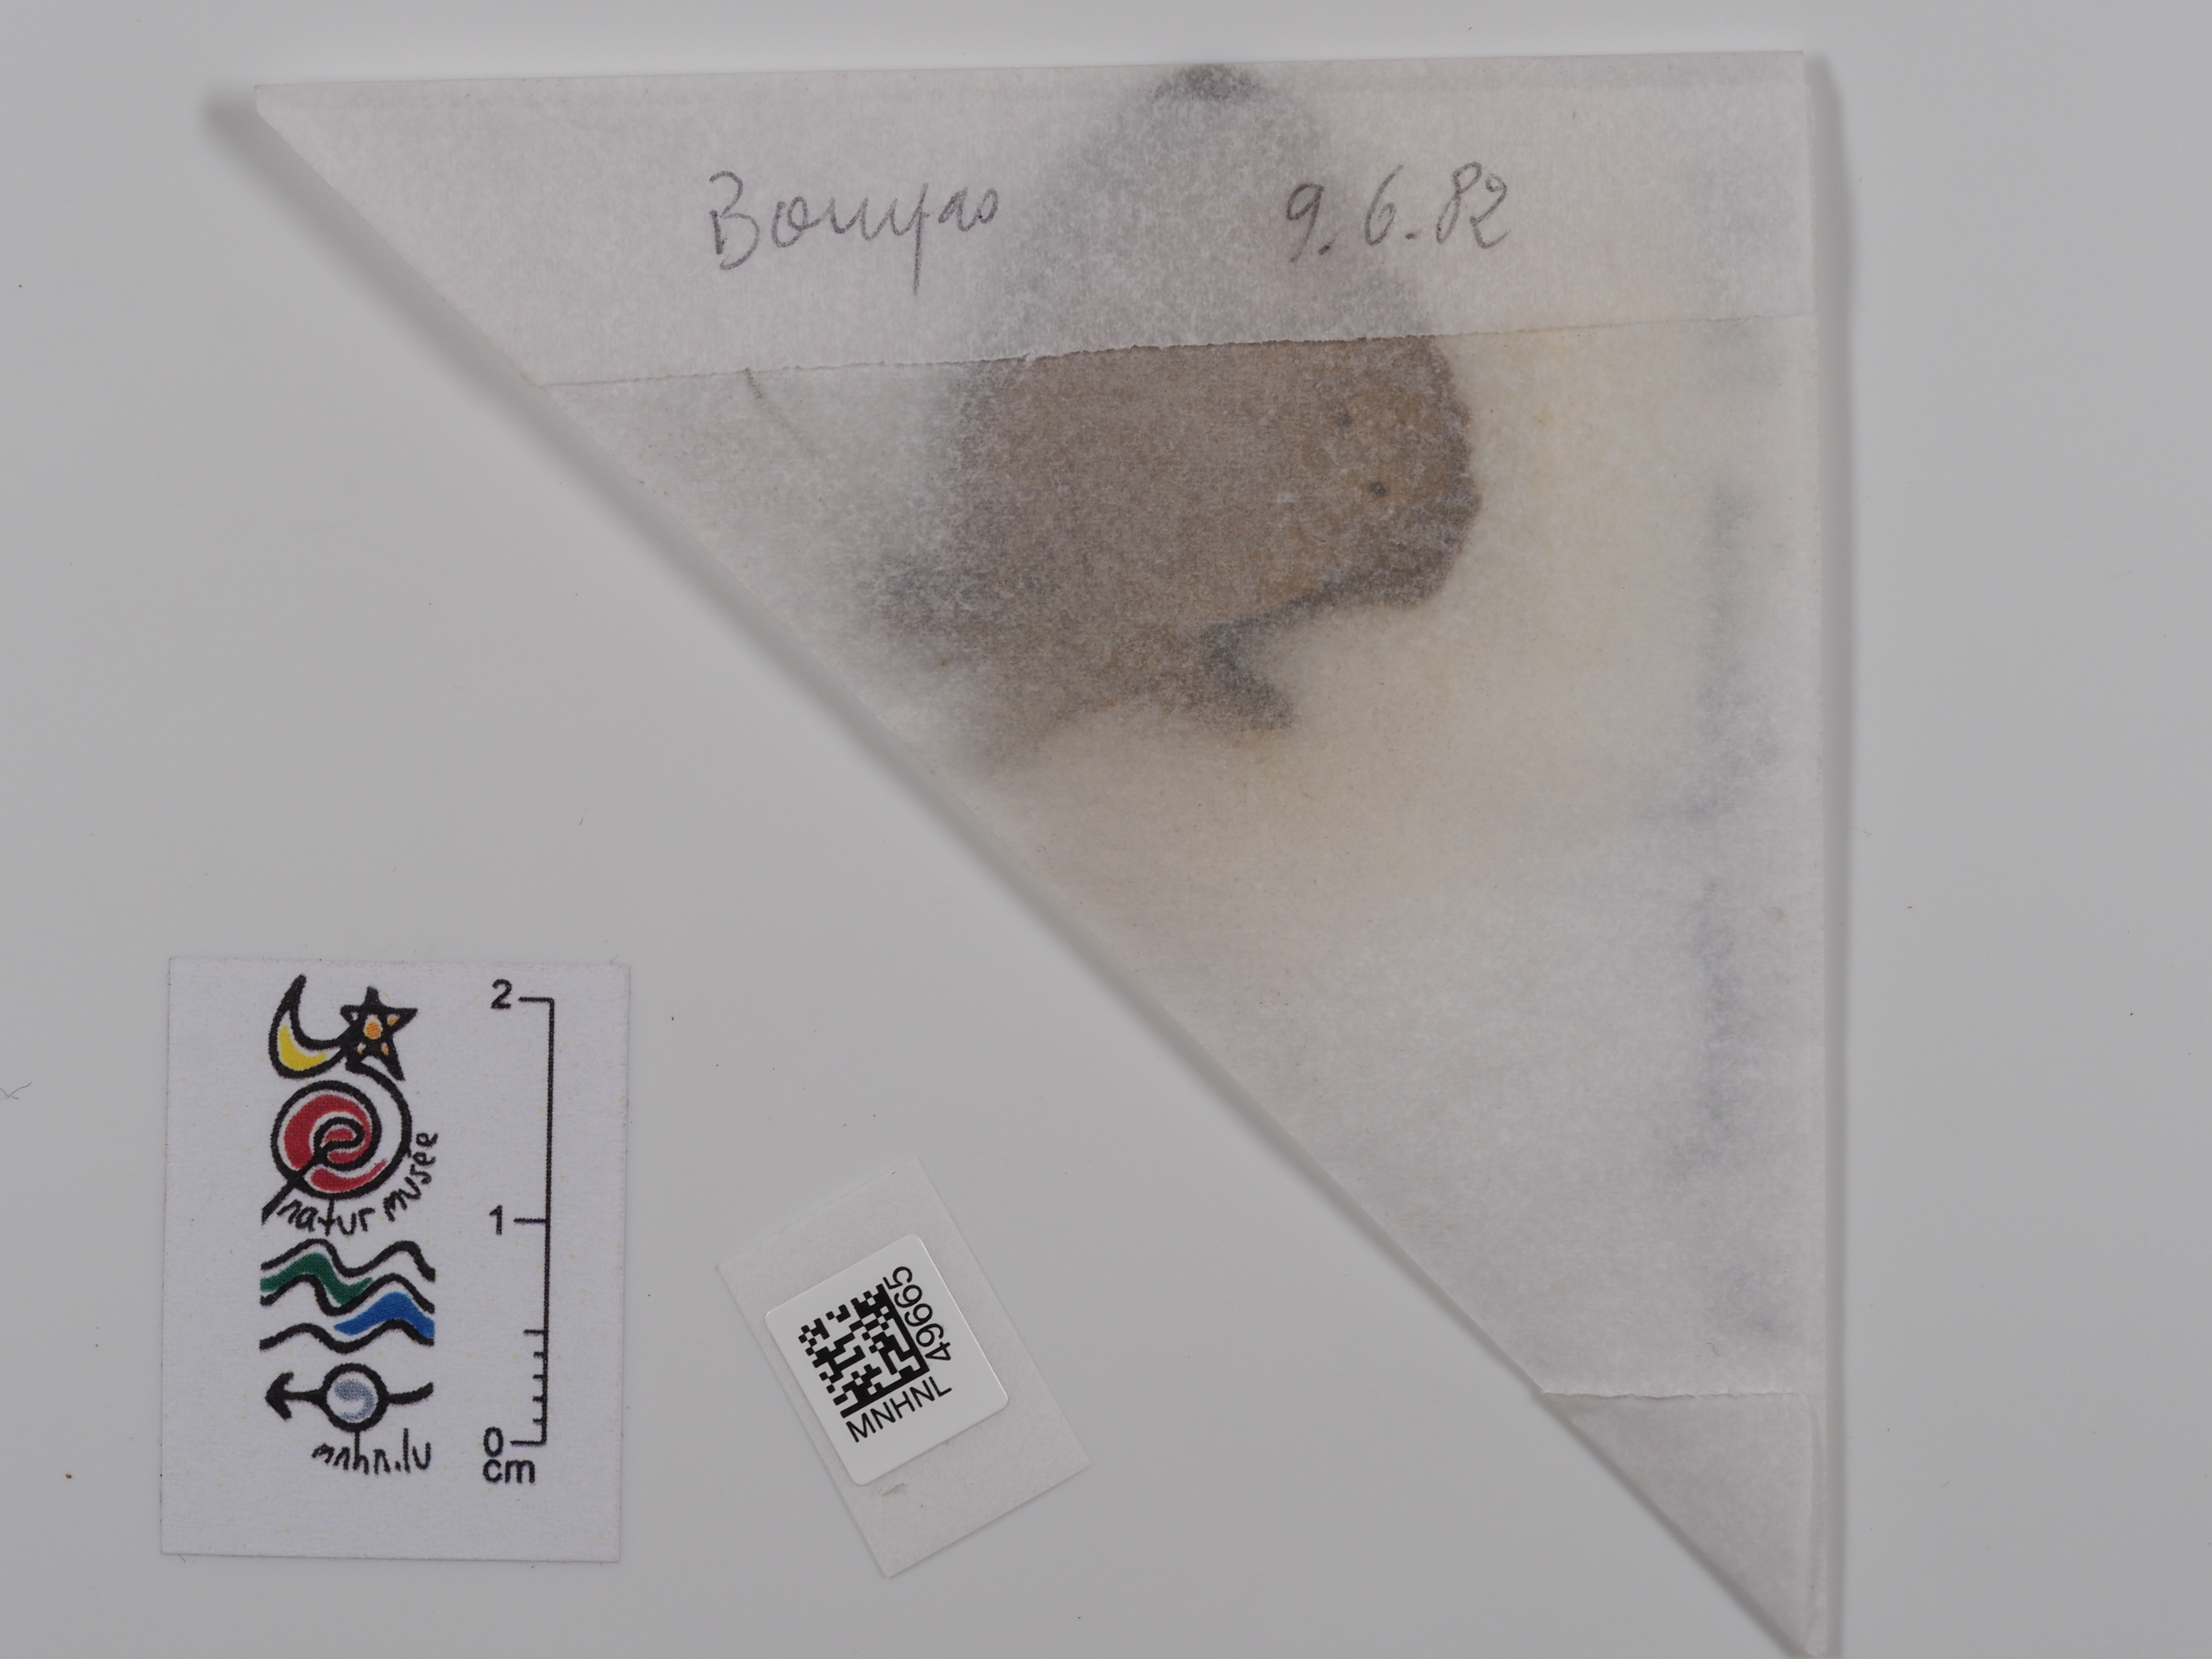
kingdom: Animalia
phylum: Arthropoda
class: Insecta
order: Lepidoptera
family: Nymphalidae
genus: Maniola
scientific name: Maniola jurtina
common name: Meadow brown
